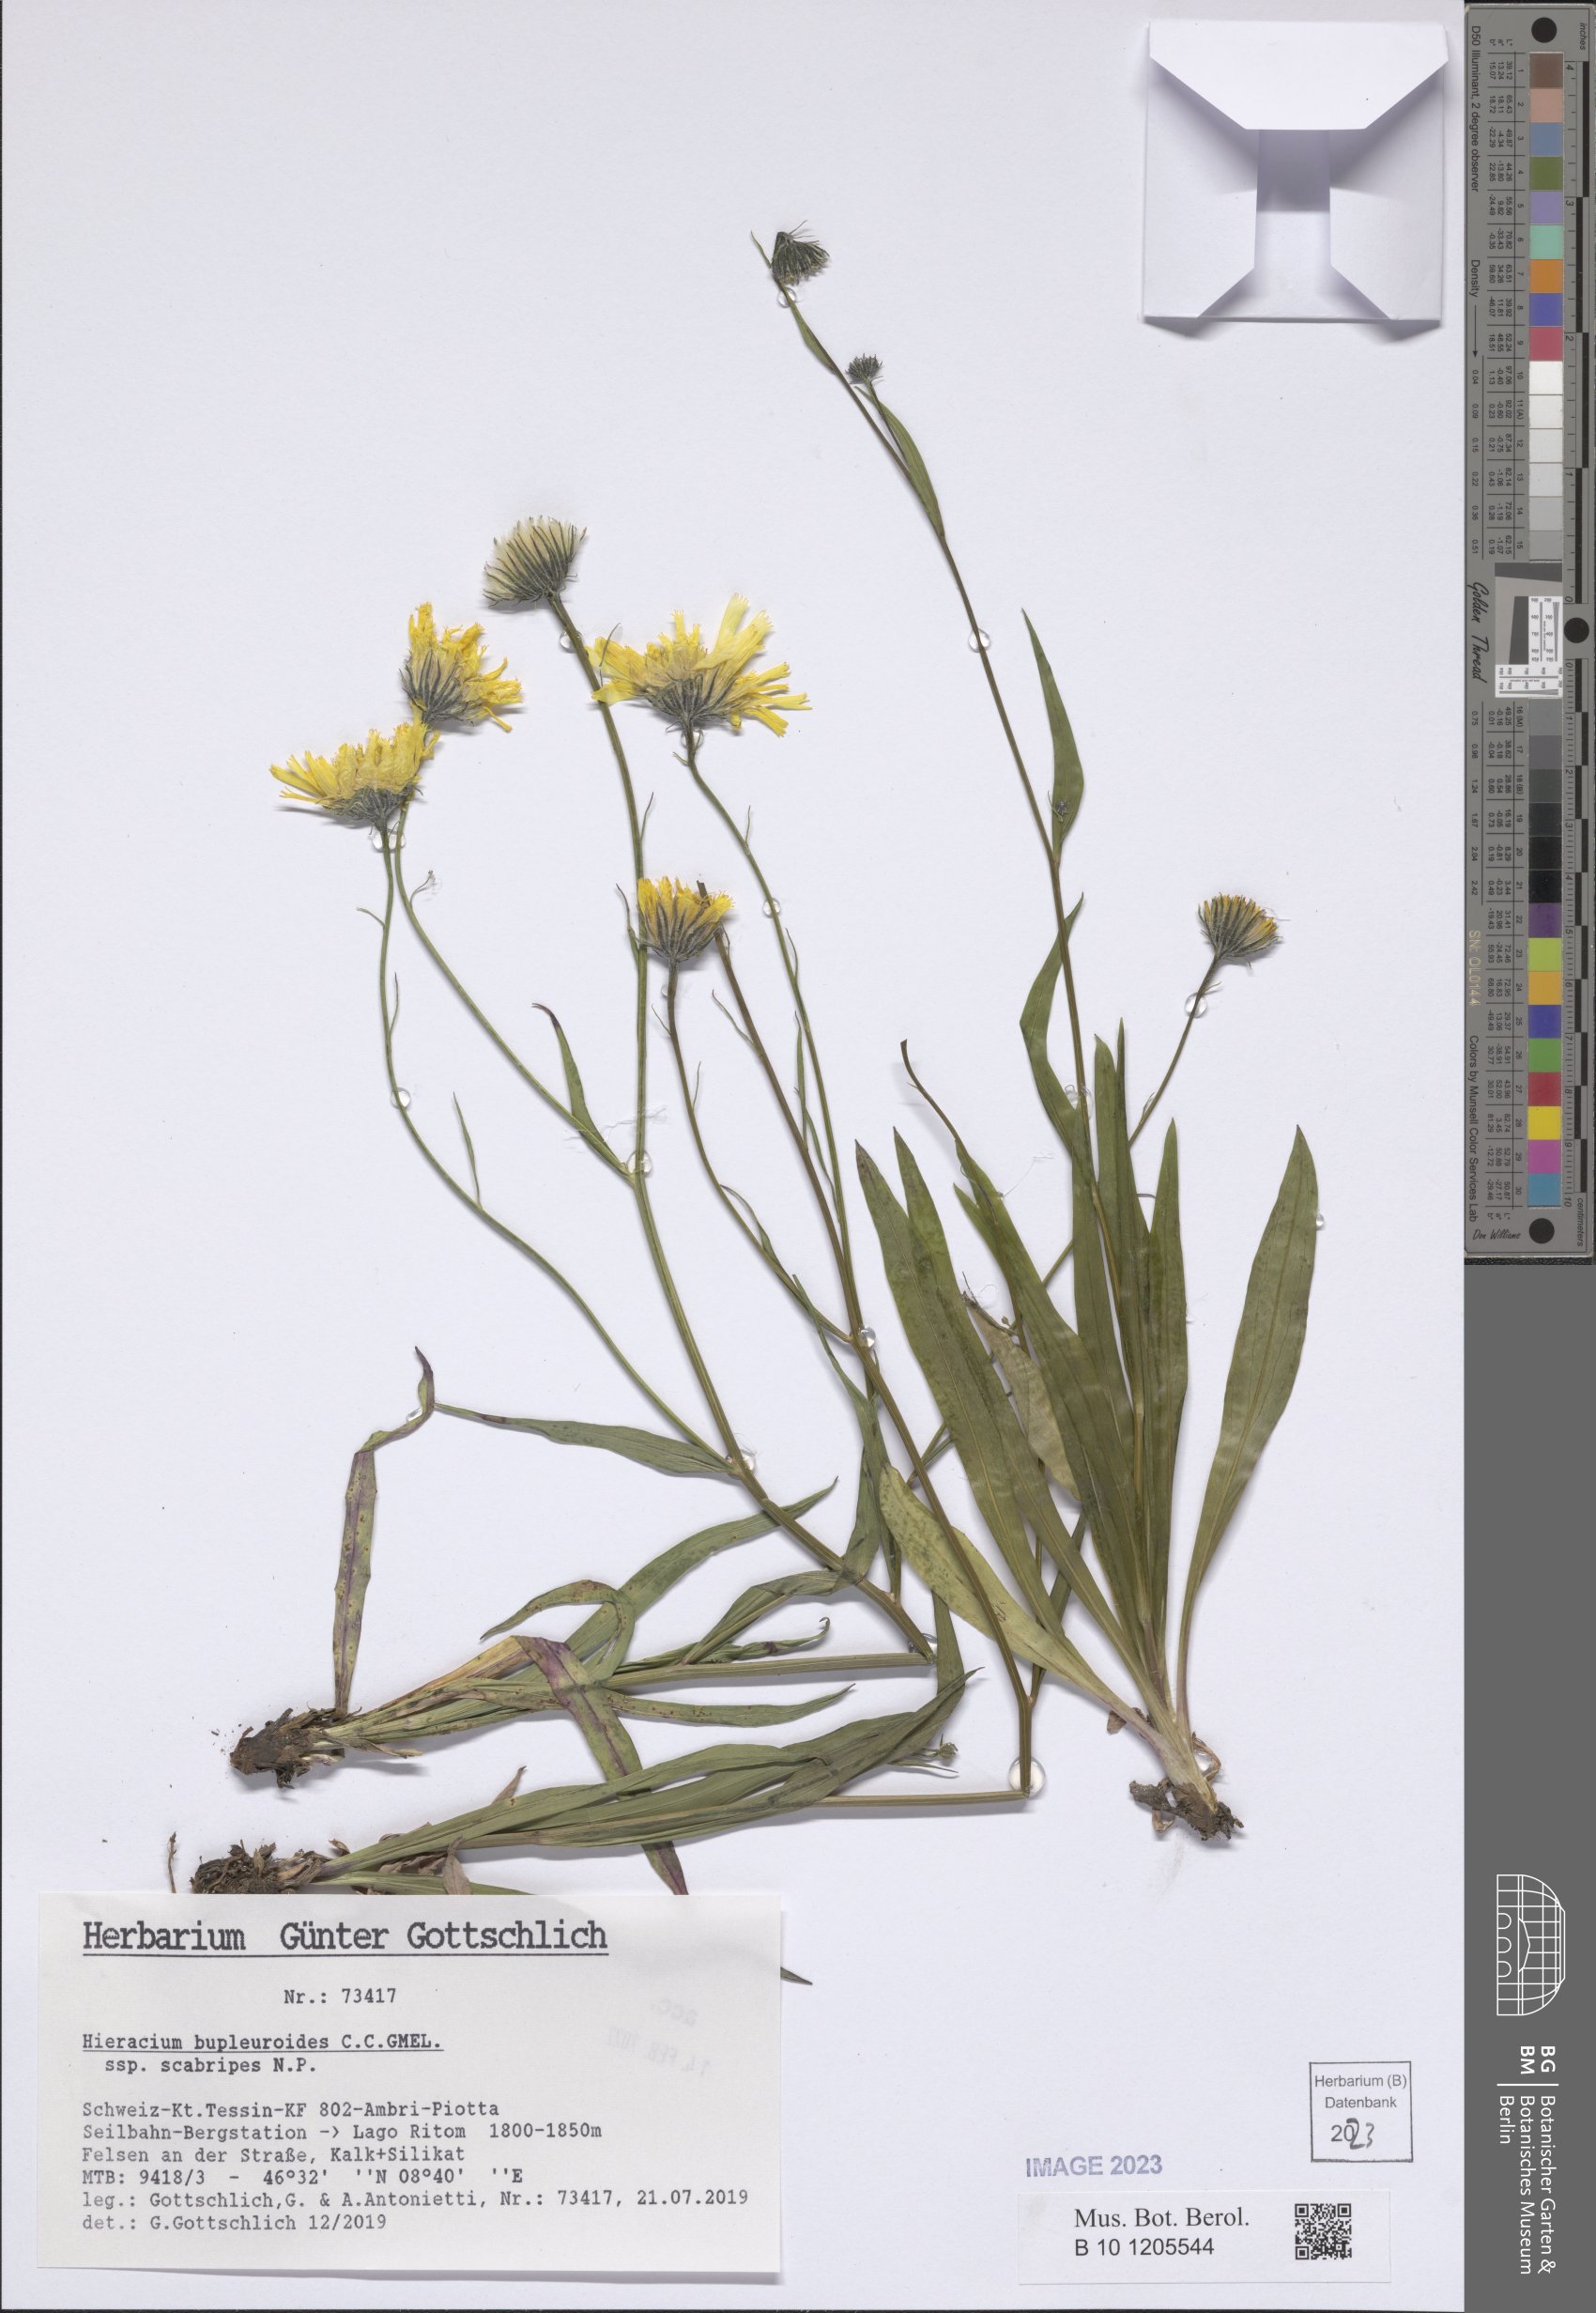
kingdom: Plantae
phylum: Tracheophyta
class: Magnoliopsida
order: Asterales
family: Asteraceae
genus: Hieracium
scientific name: Hieracium bupleuroides
